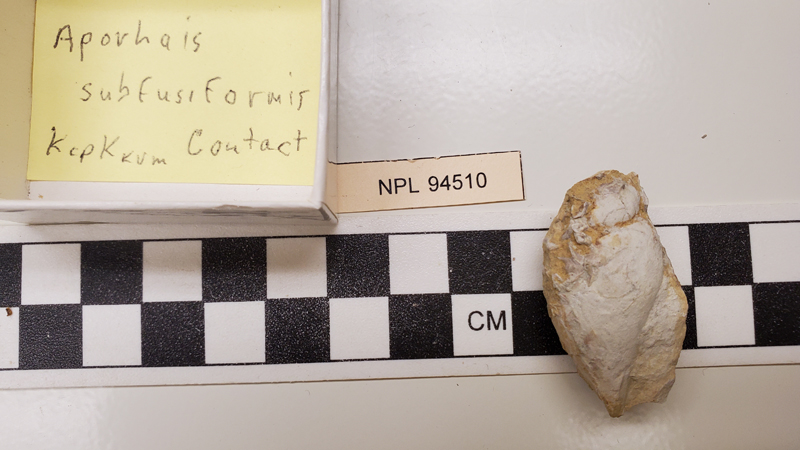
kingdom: Animalia
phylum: Mollusca
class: Gastropoda
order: Littorinimorpha
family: Aporrhaidae
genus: Aporrhais
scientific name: Aporrhais
